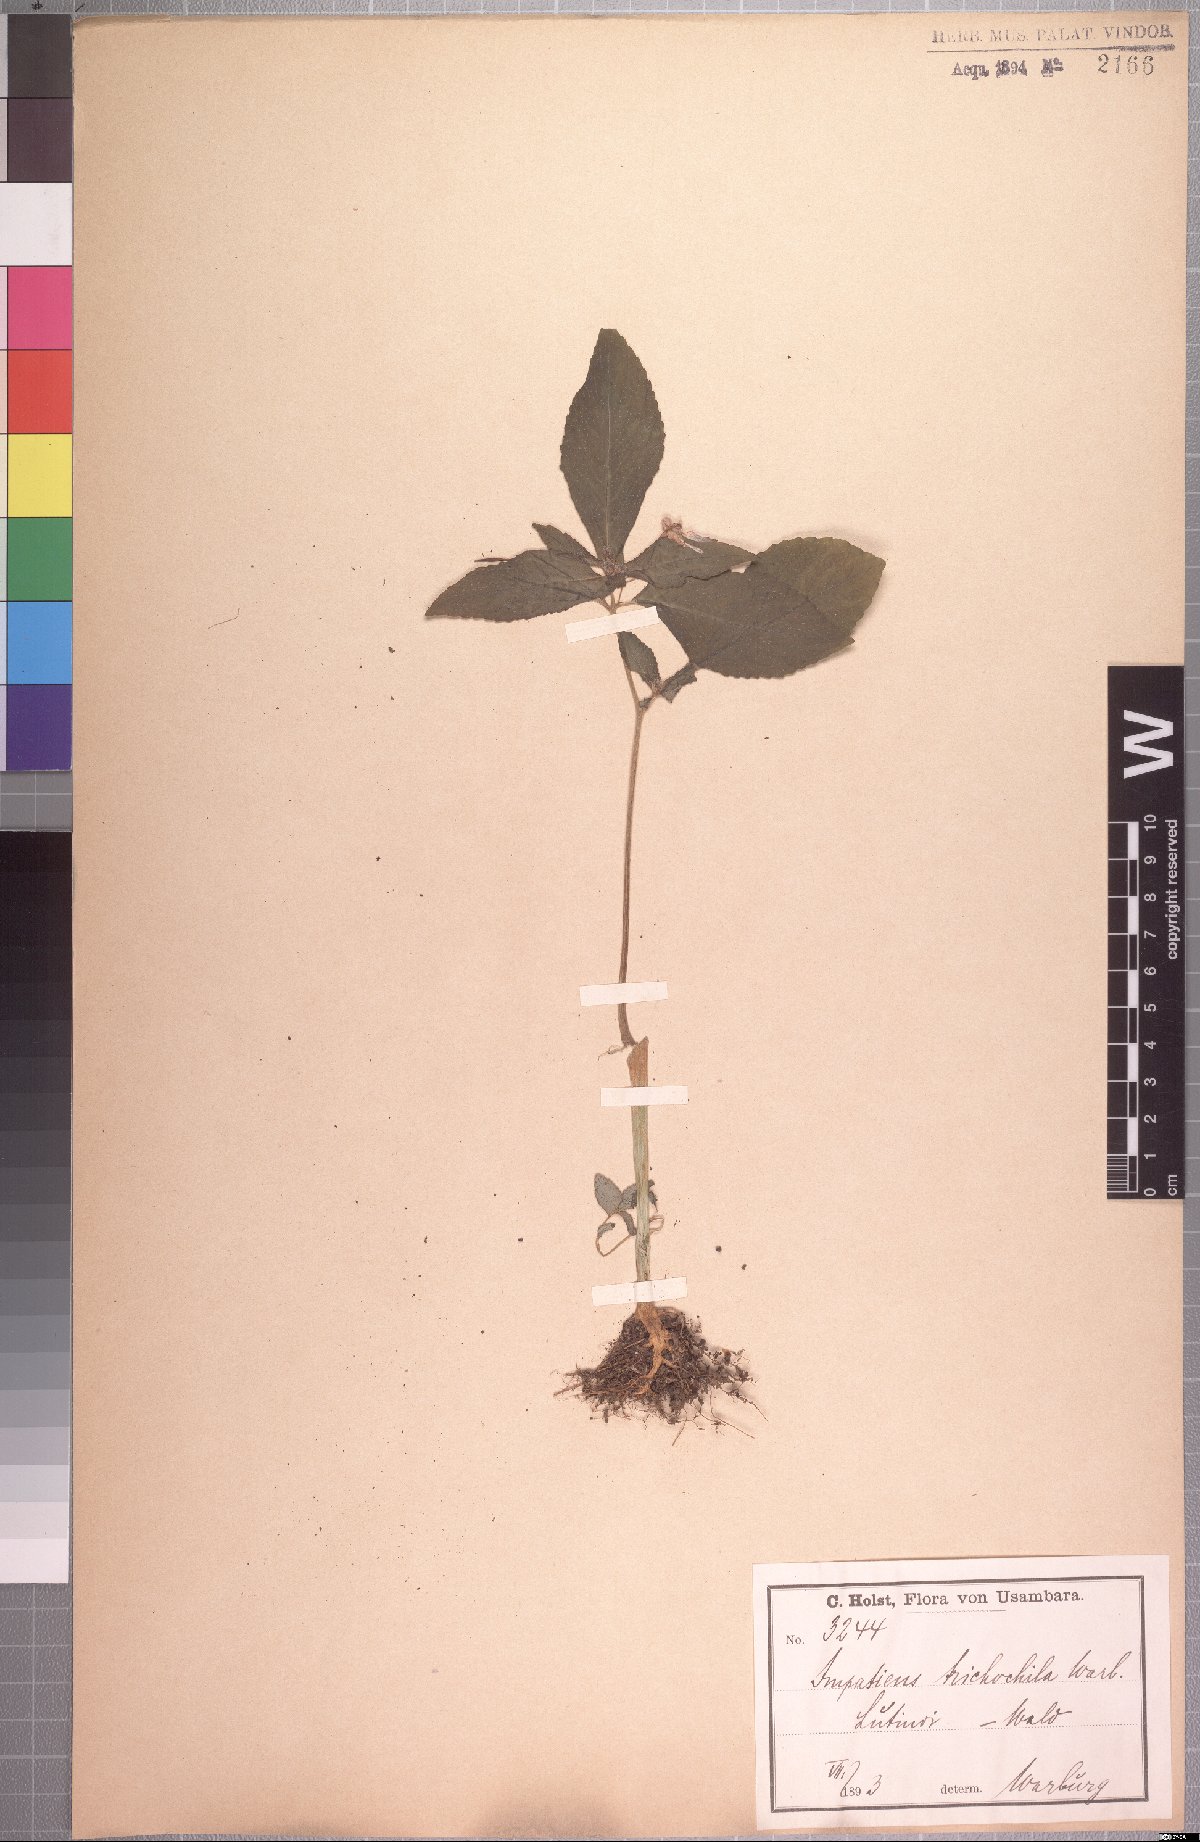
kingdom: Plantae
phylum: Tracheophyta
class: Magnoliopsida
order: Ericales
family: Balsaminaceae
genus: Impatiens
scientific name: Impatiens nana
